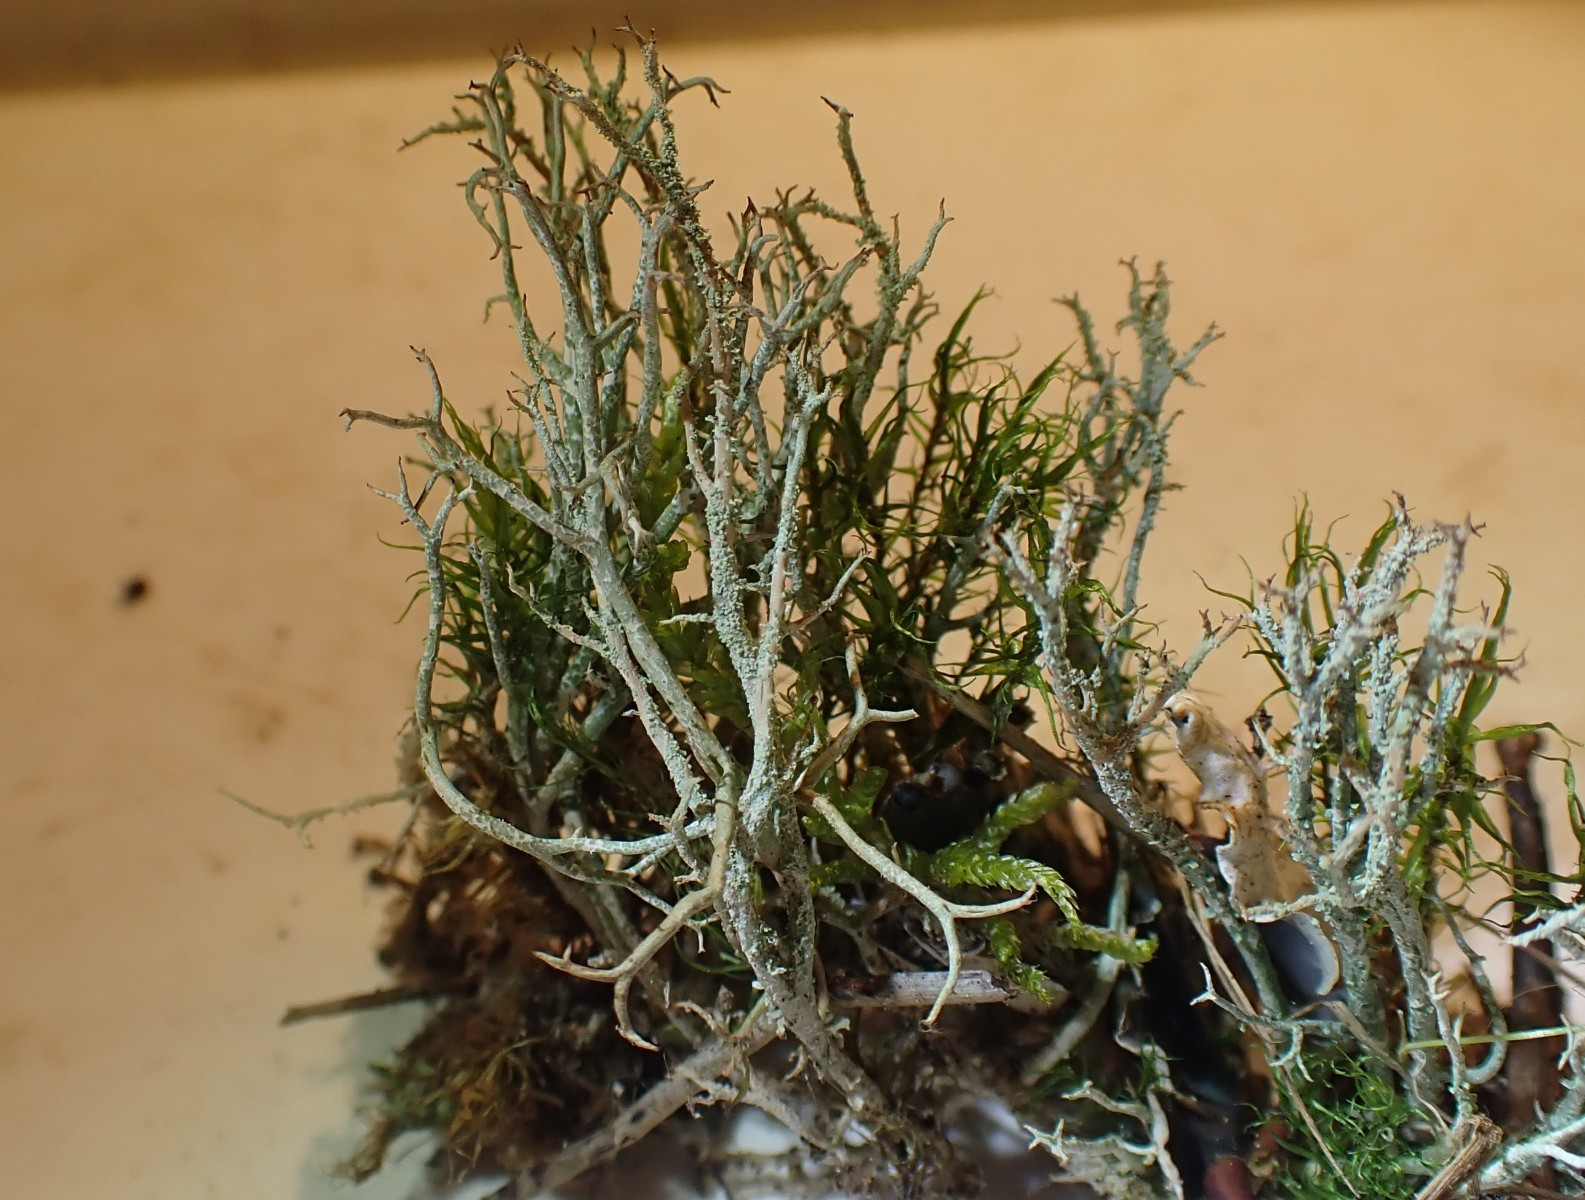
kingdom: Fungi
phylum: Ascomycota
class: Lecanoromycetes
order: Lecanorales
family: Cladoniaceae
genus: Cladonia
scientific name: Cladonia scabriuscula
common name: ru bægerlav
